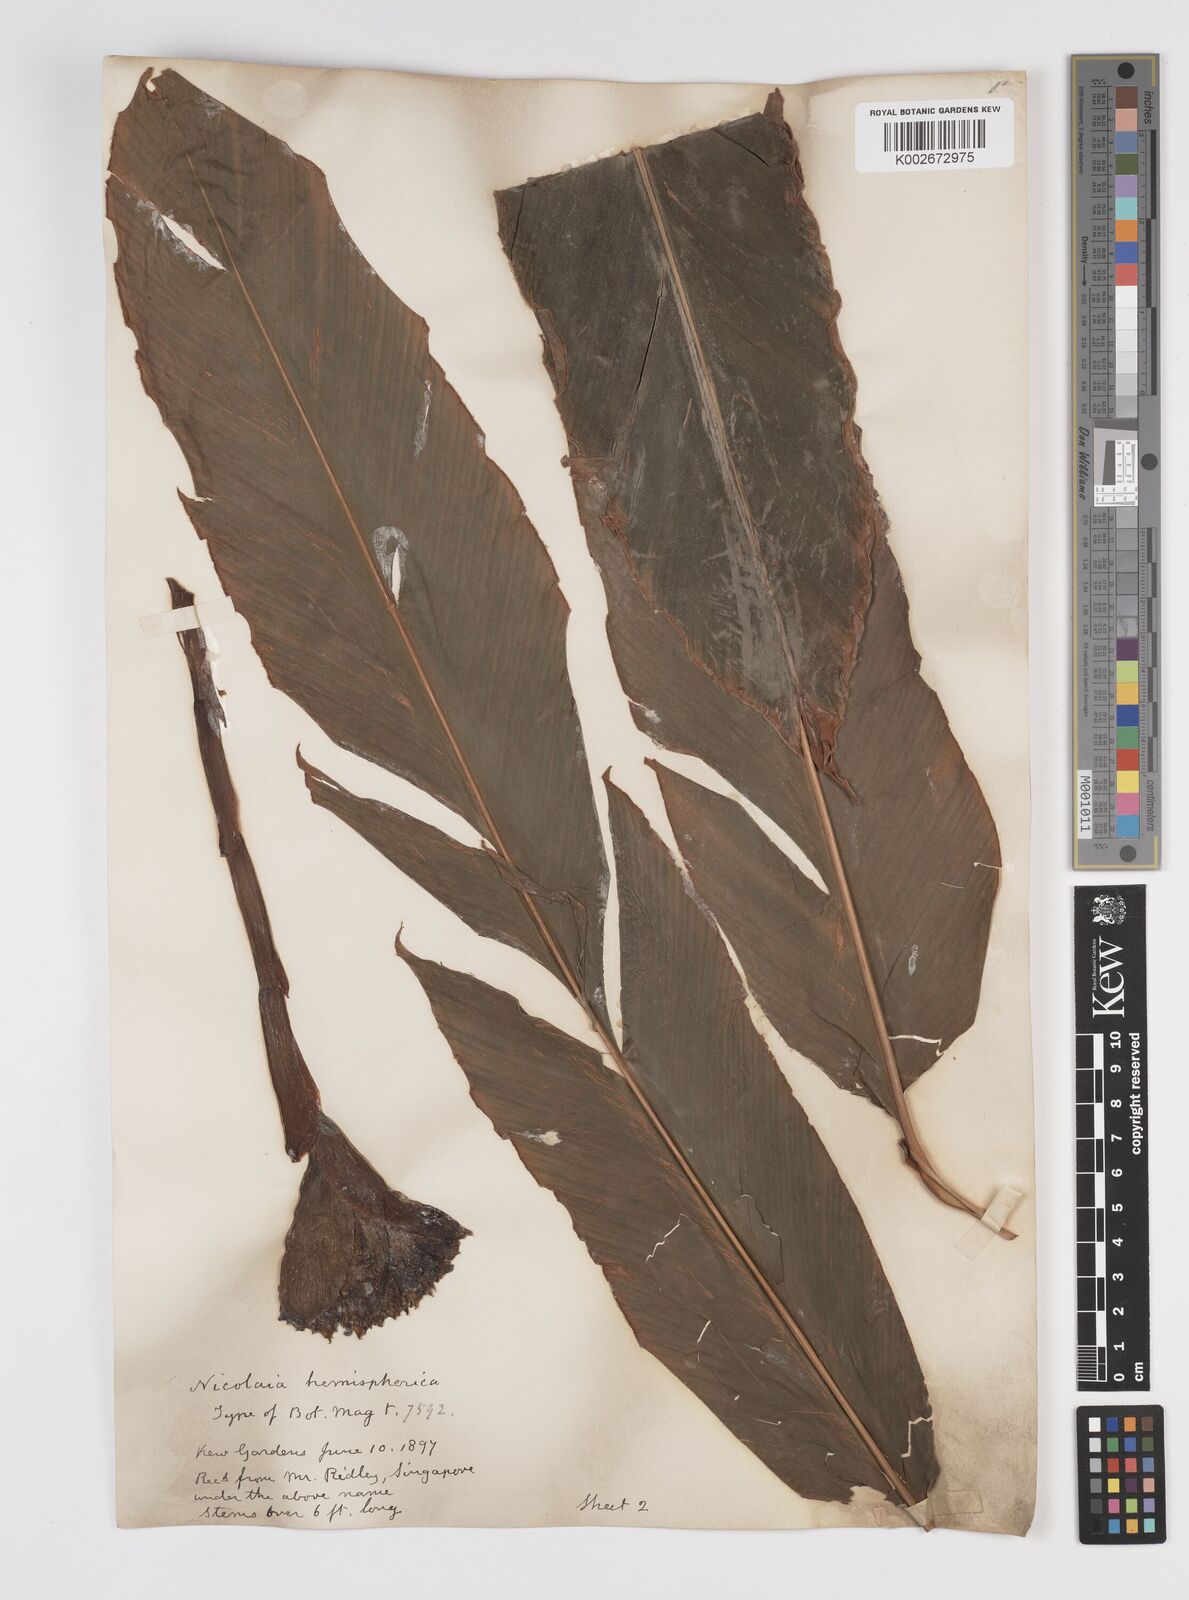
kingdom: Plantae
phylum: Tracheophyta
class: Liliopsida
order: Zingiberales
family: Zingiberaceae
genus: Etlingera
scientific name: Etlingera hemisphaerica
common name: Black tulip
